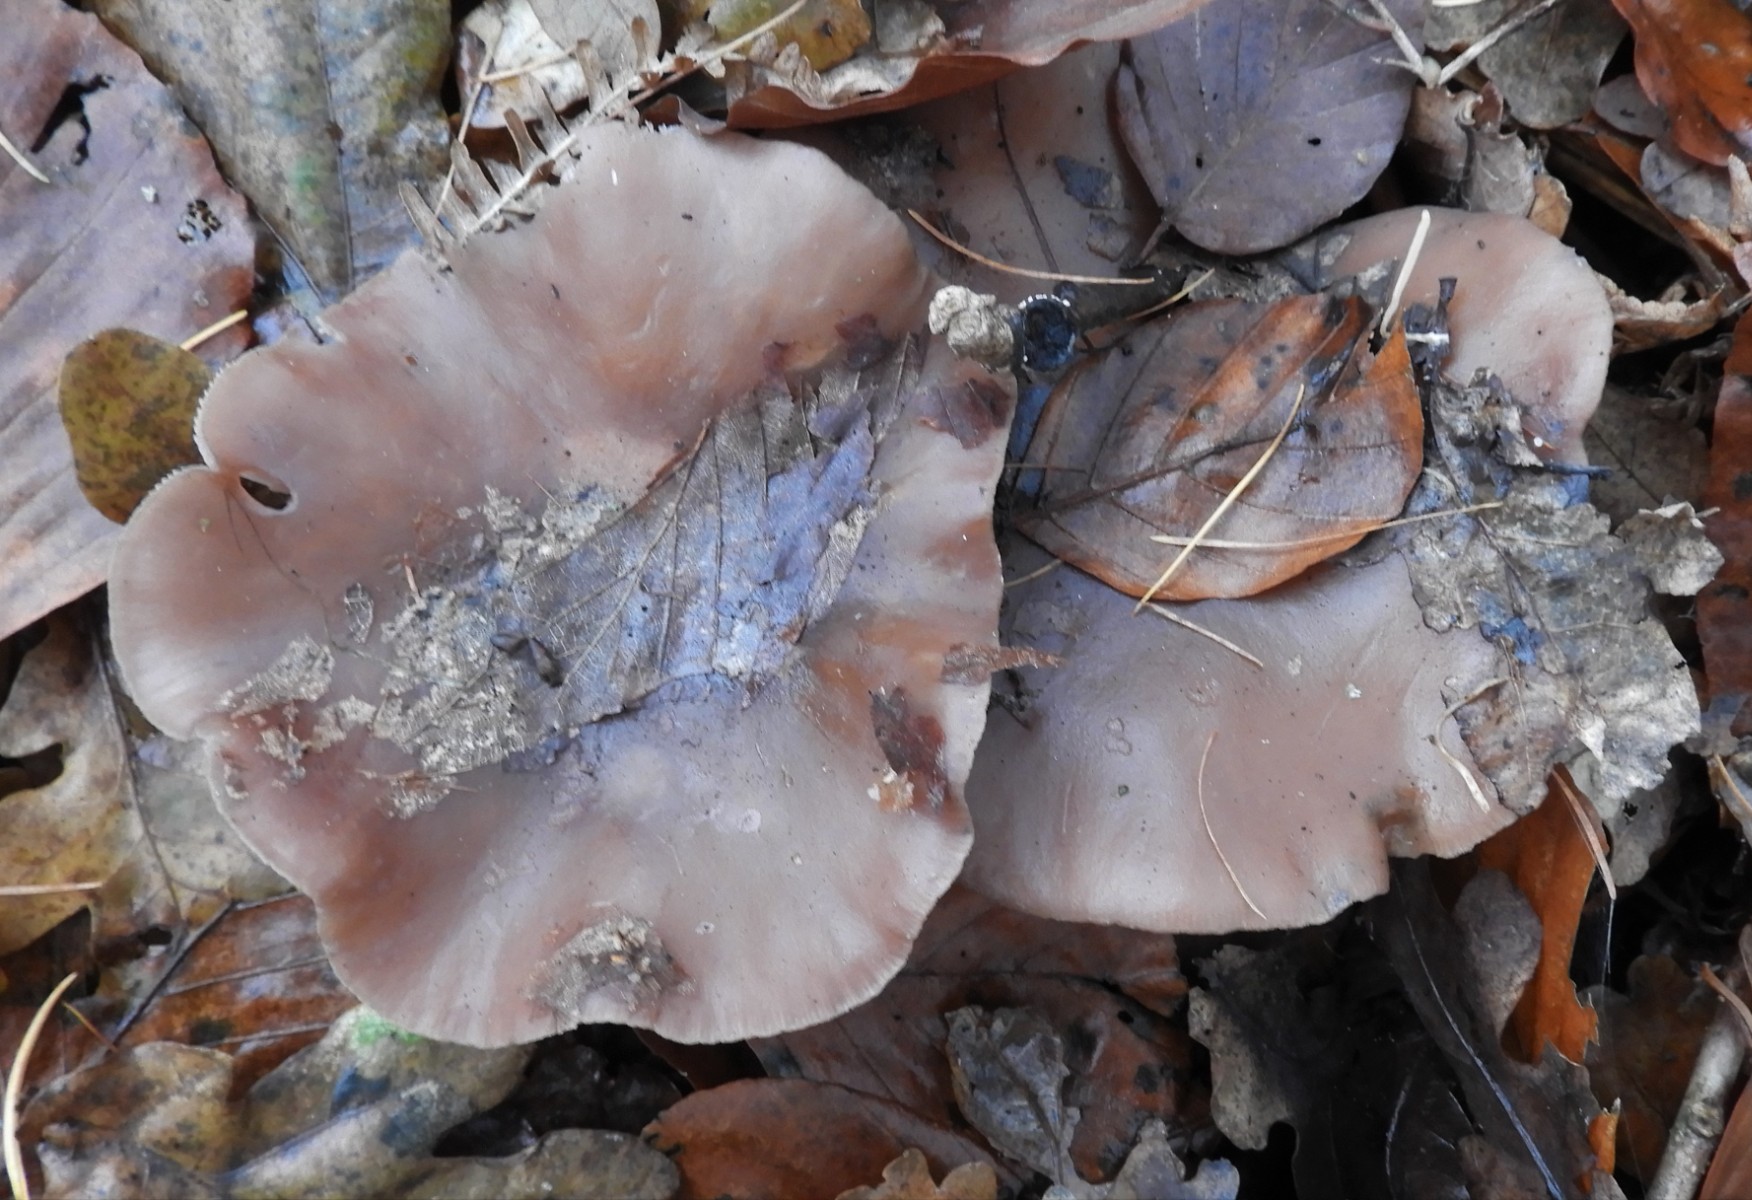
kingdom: Fungi
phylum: Basidiomycota
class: Agaricomycetes
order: Agaricales
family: Tricholomataceae
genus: Lepista
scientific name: Lepista nuda
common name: violet hekseringshat
